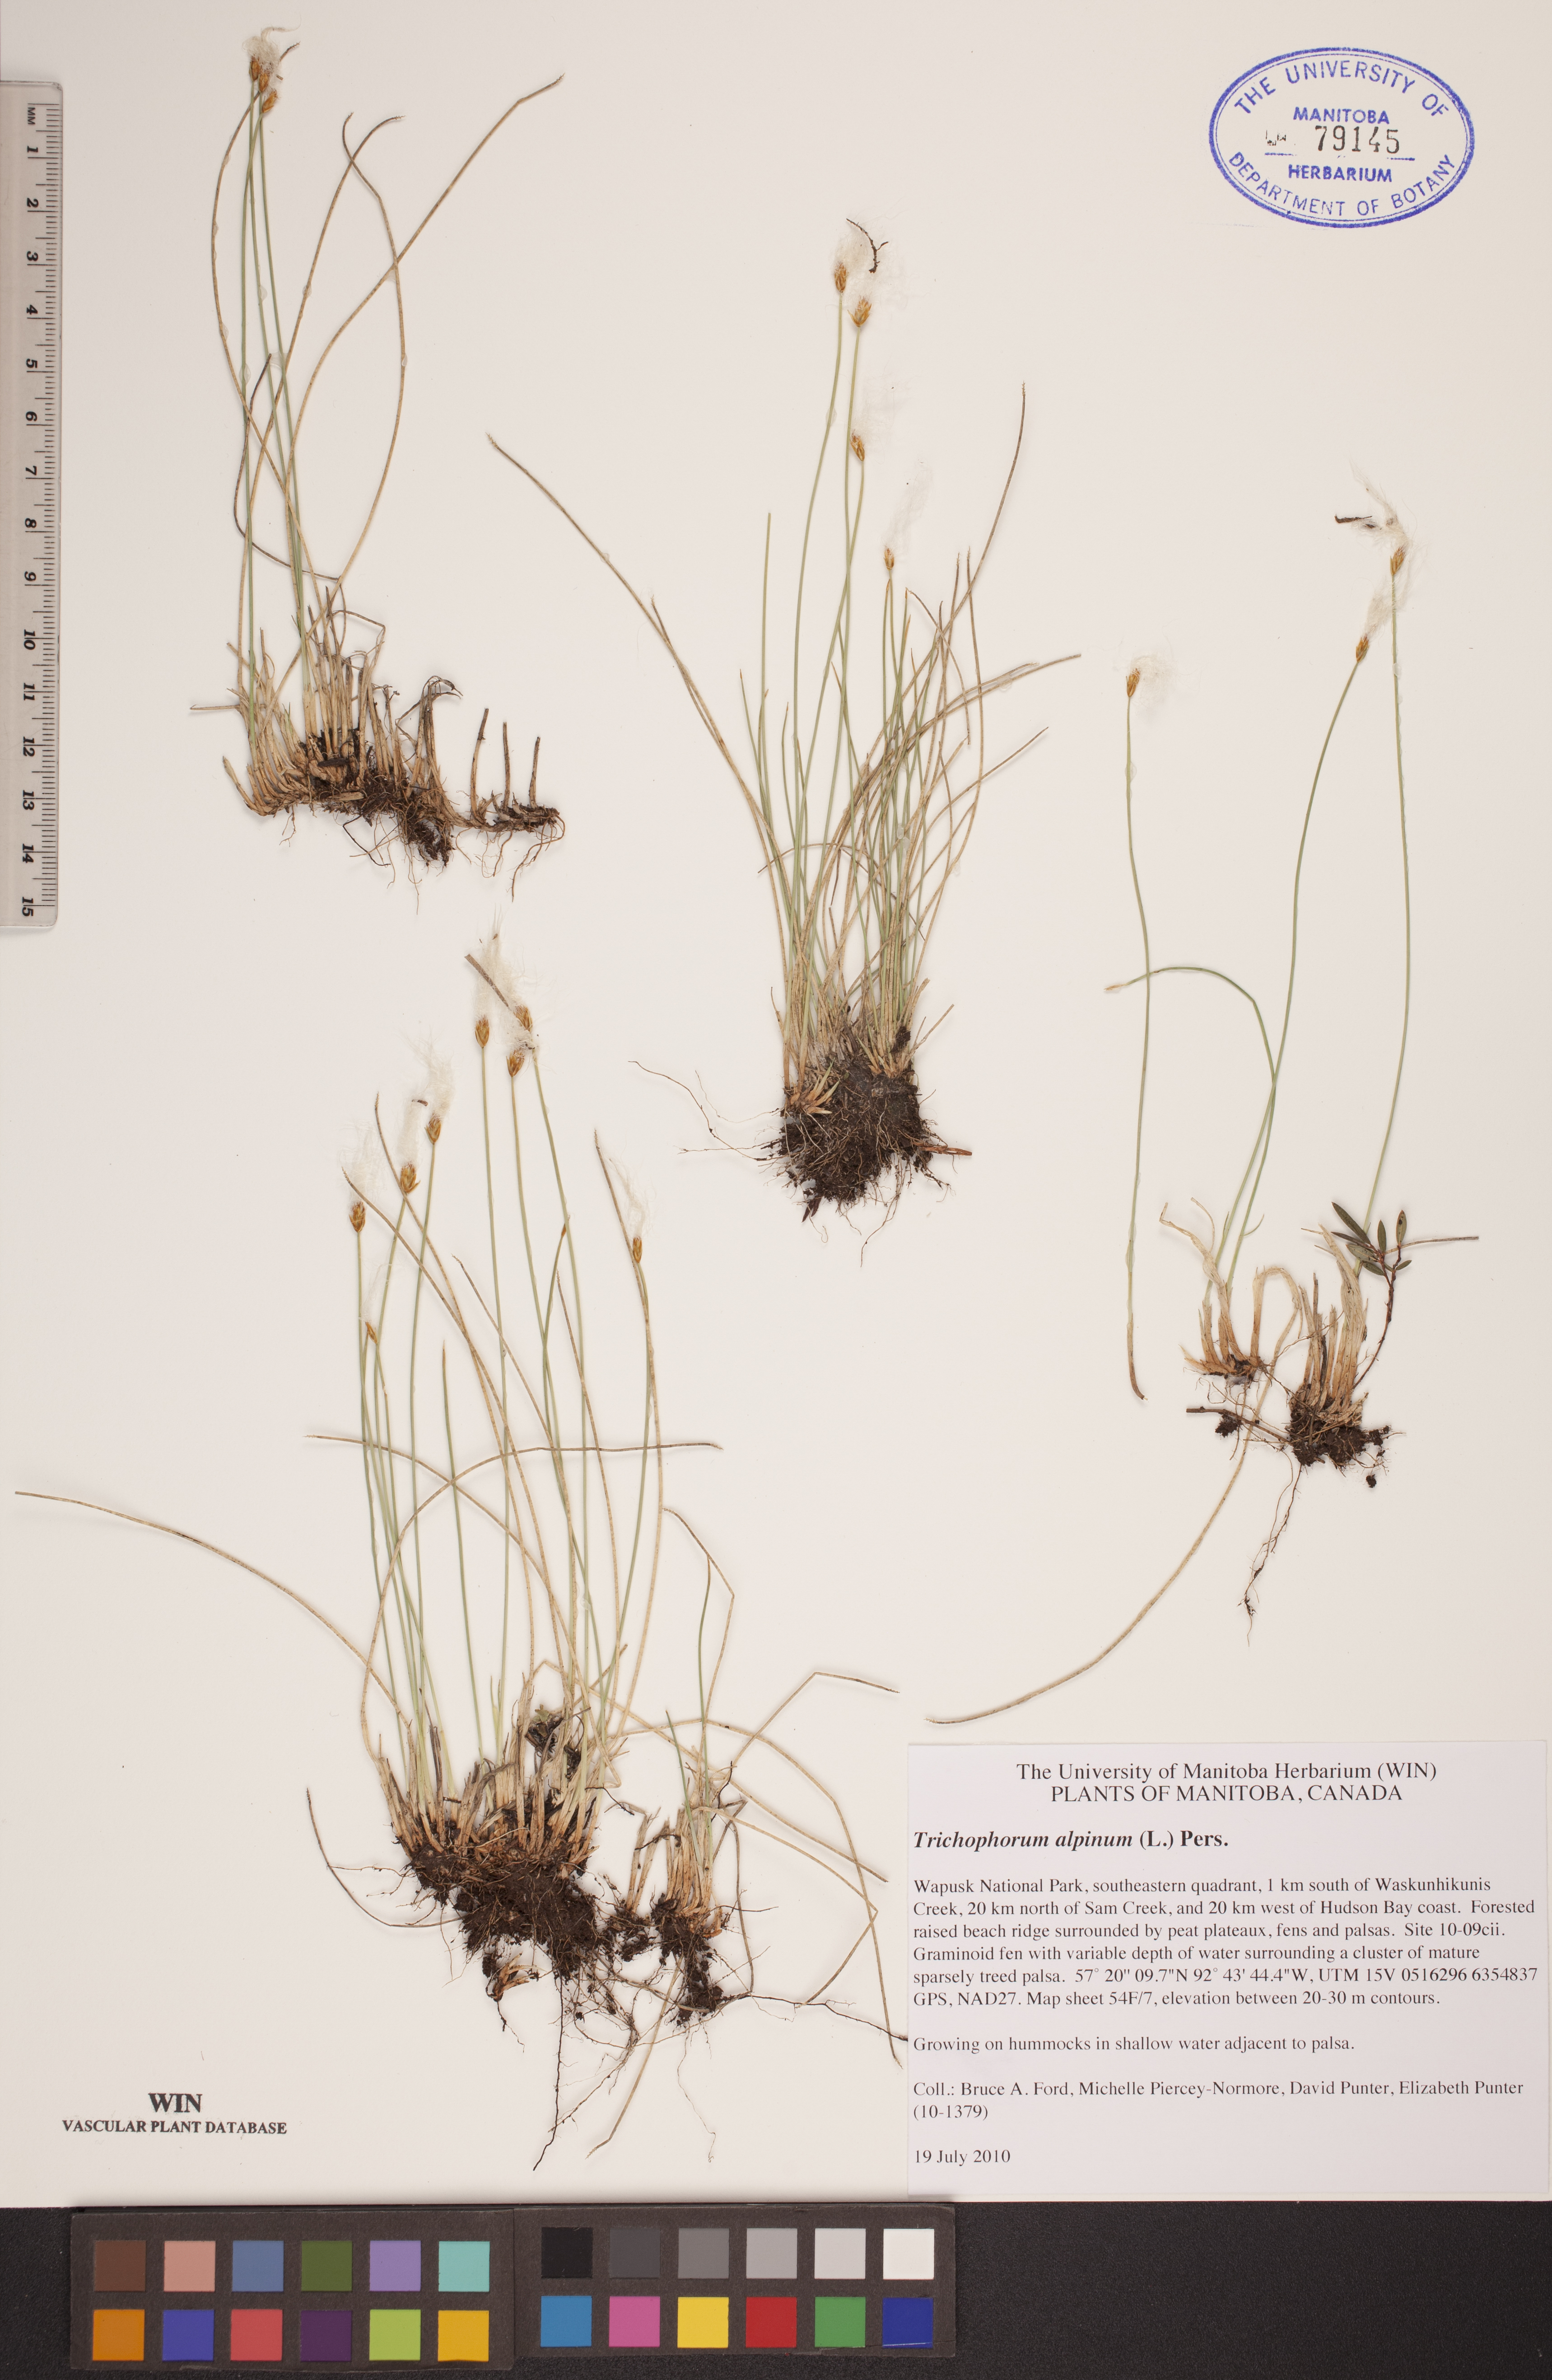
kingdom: Plantae
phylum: Tracheophyta
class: Liliopsida
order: Poales
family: Cyperaceae
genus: Trichophorum
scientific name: Trichophorum alpinum
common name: Alpine bulrush
